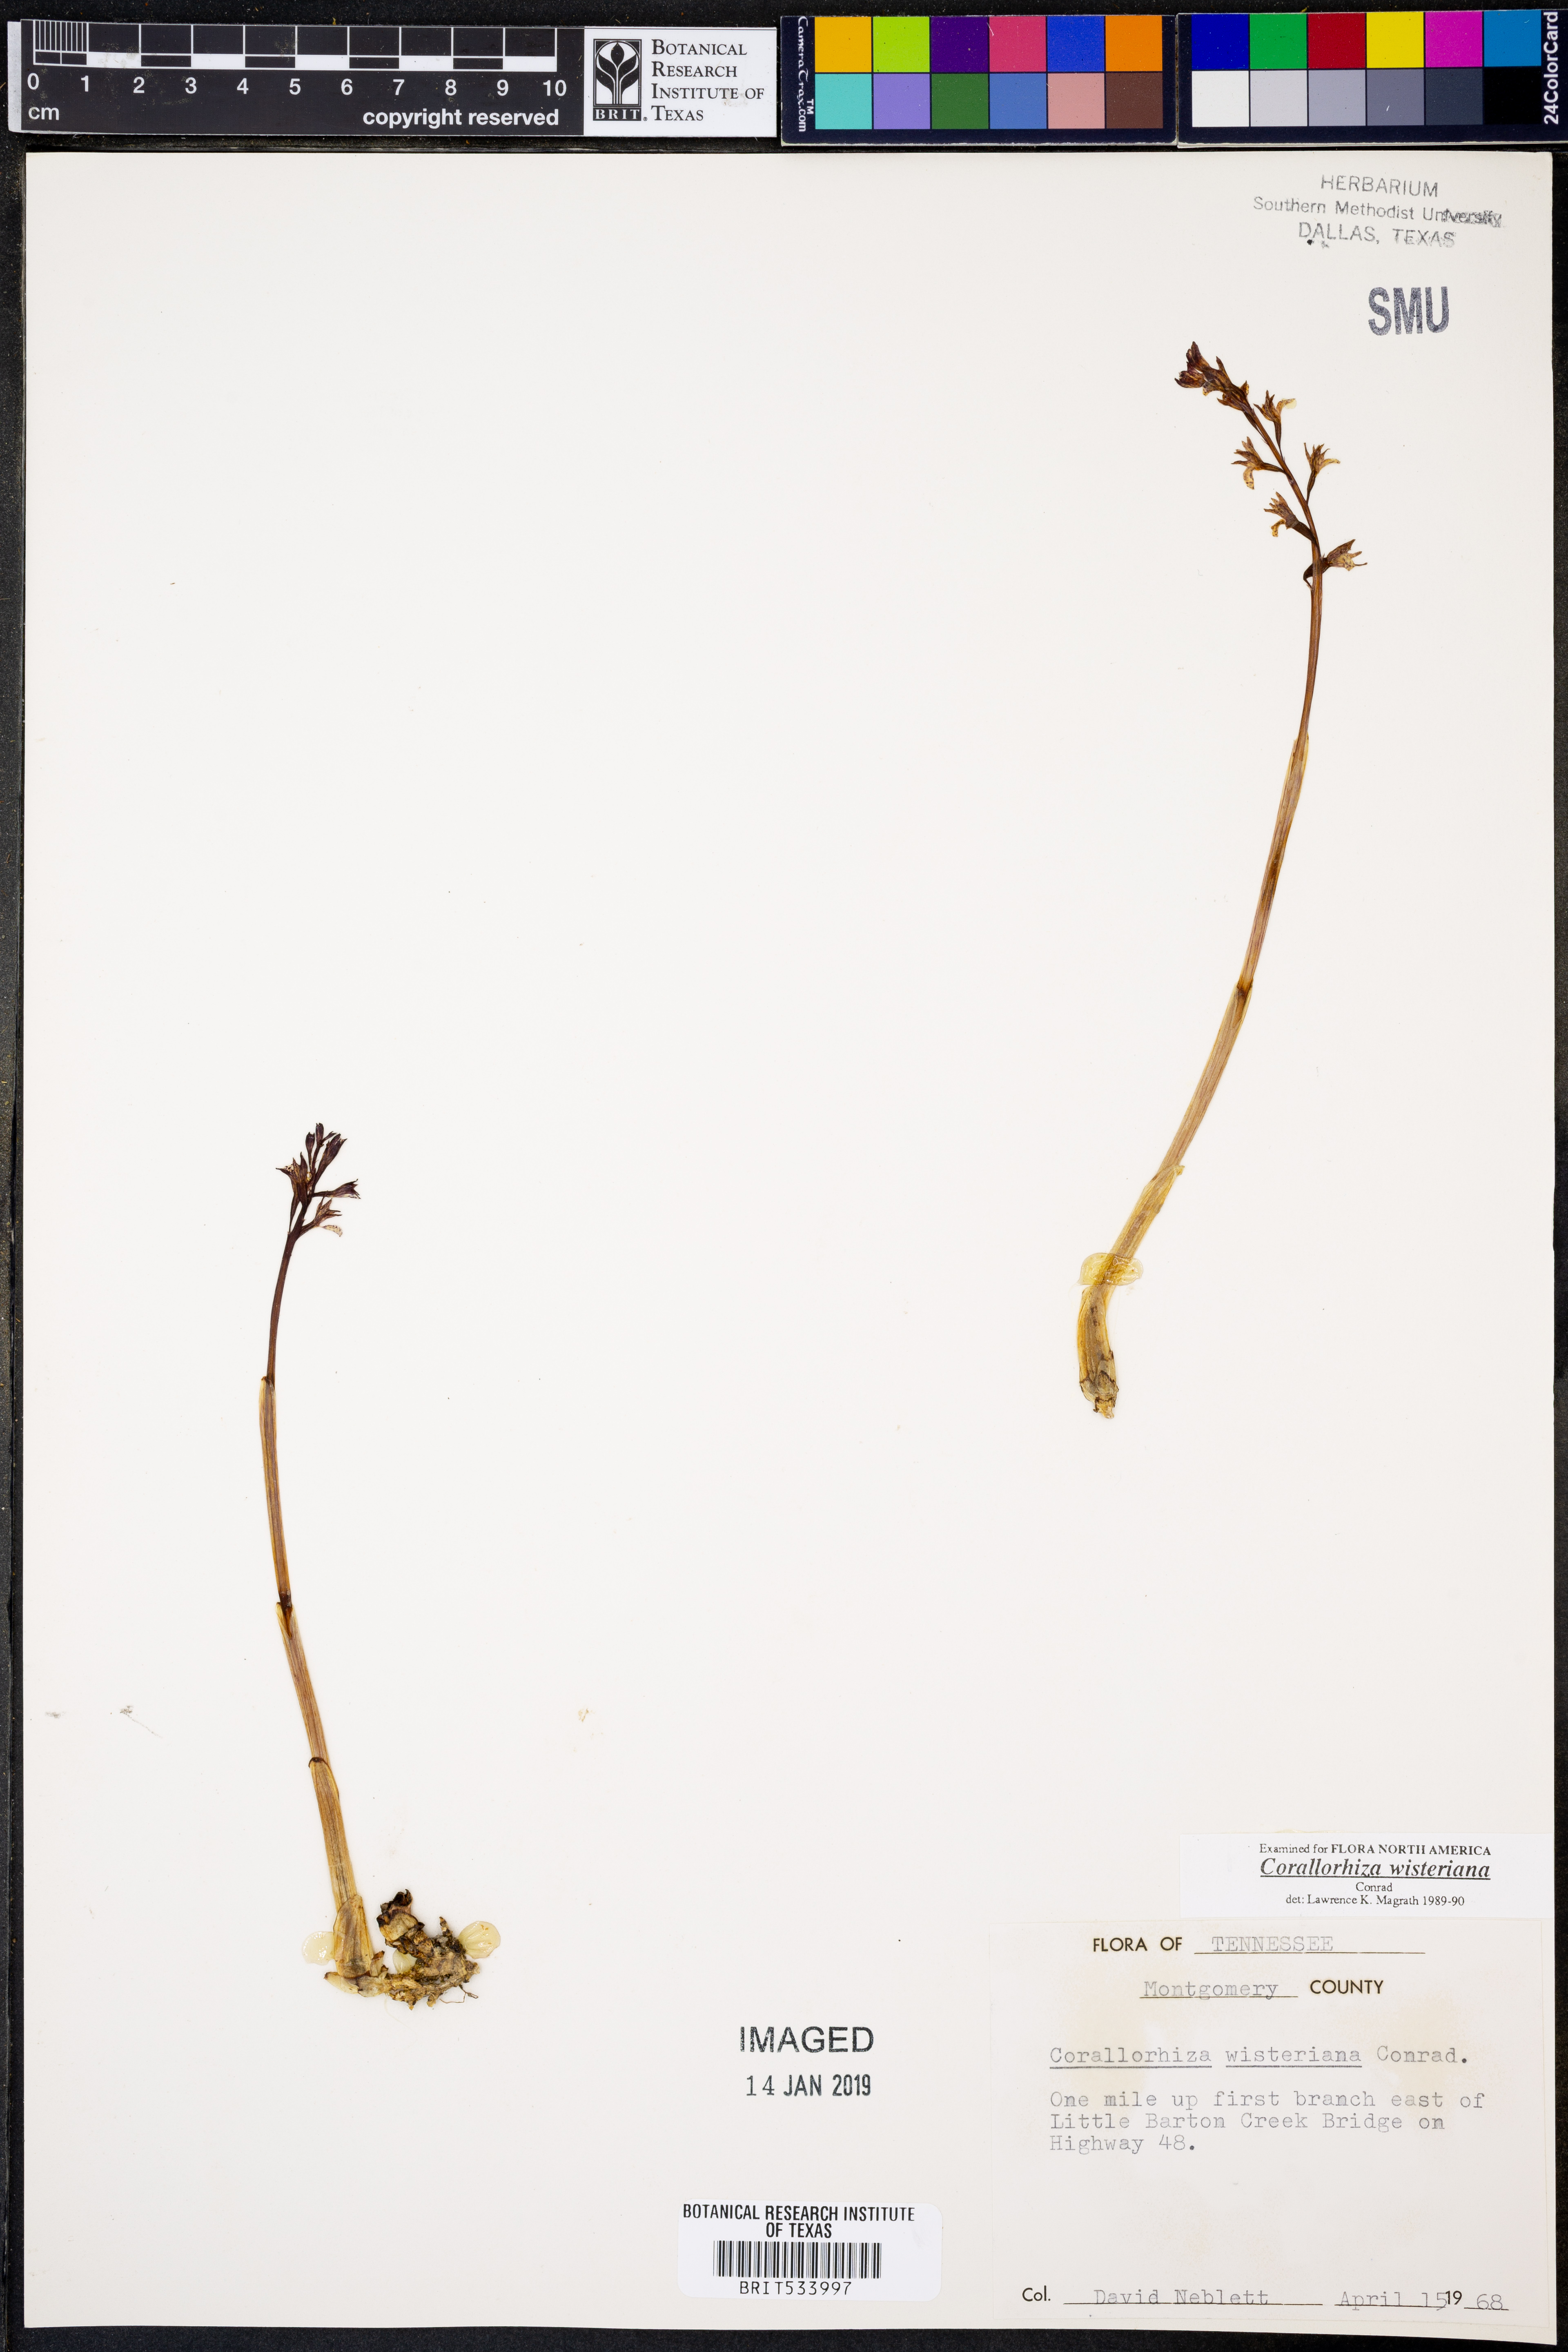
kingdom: Plantae
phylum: Tracheophyta
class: Liliopsida
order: Asparagales
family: Orchidaceae
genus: Corallorhiza
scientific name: Corallorhiza wisteriana
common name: Spring coralroot
